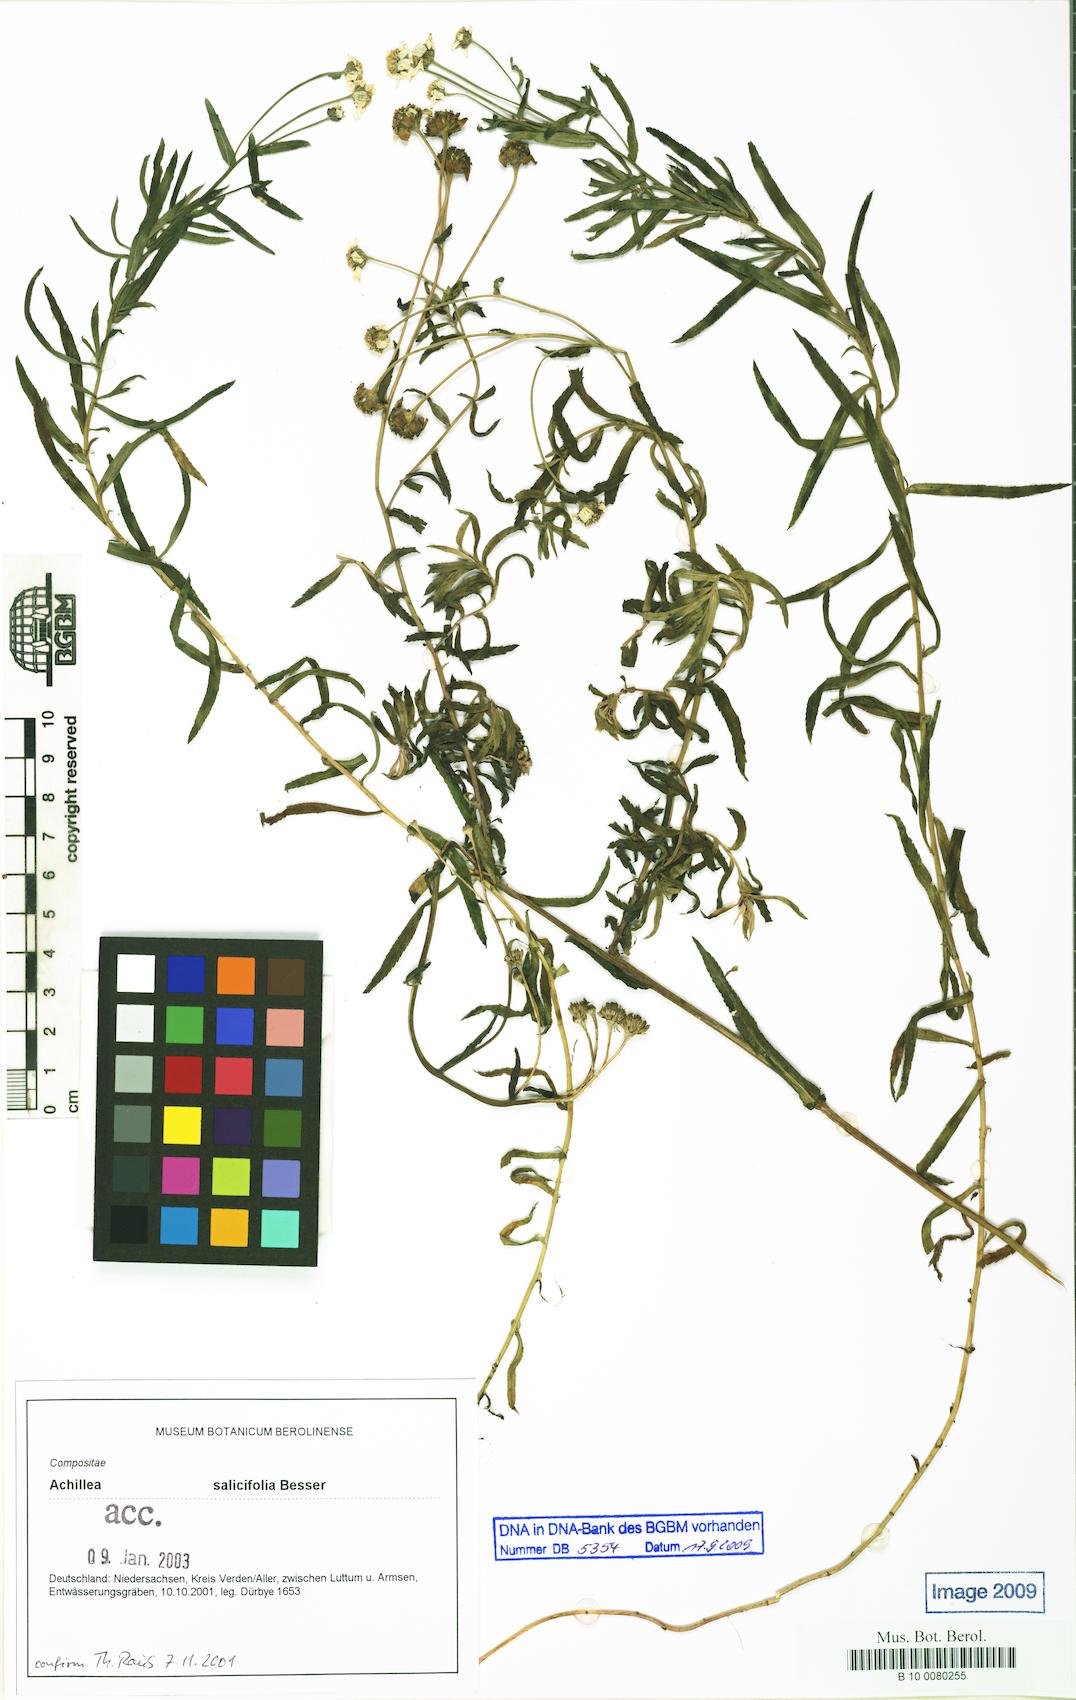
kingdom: Plantae
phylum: Tracheophyta
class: Magnoliopsida
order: Asterales
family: Asteraceae
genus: Achillea
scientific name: Achillea salicifolia
